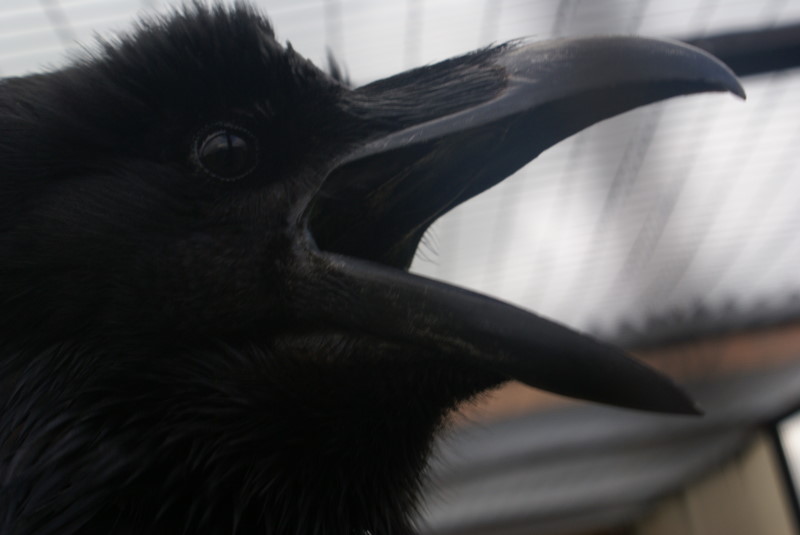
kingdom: Animalia
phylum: Chordata
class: Aves
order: Passeriformes
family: Corvidae
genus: Corvus
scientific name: Corvus corax
